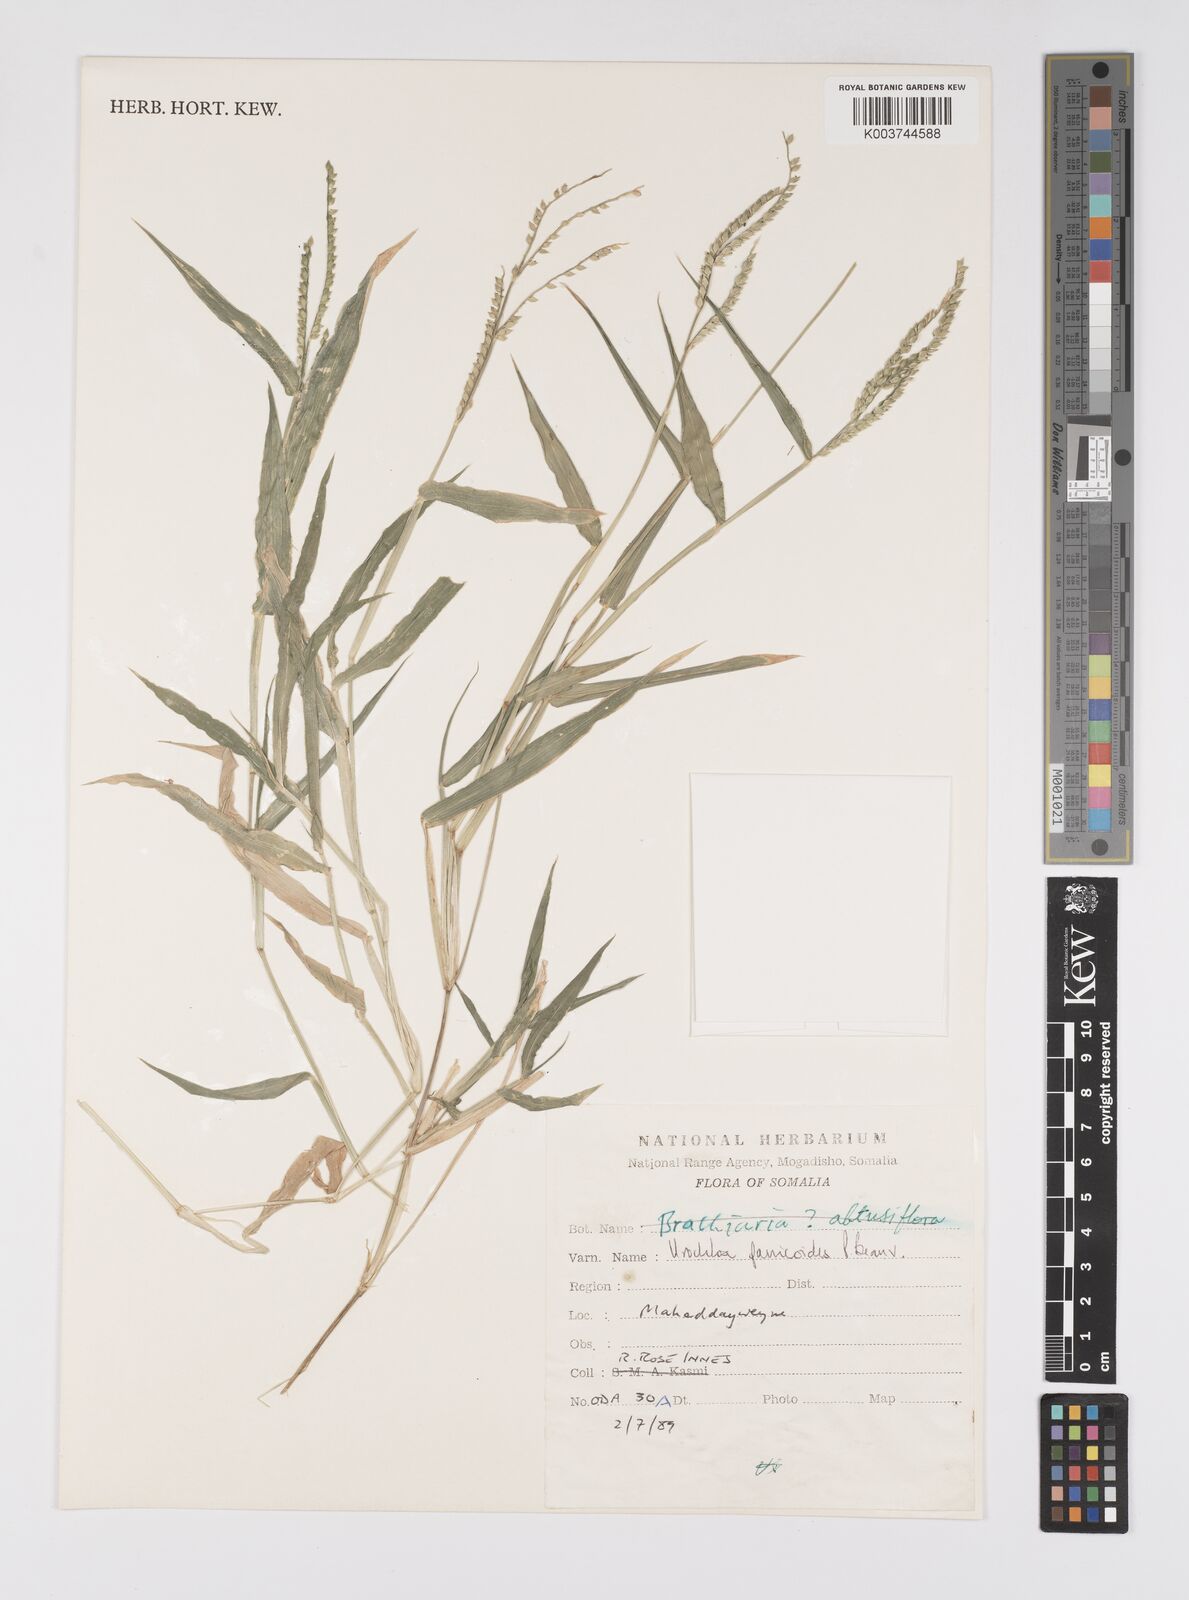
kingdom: Plantae
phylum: Tracheophyta
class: Liliopsida
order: Poales
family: Poaceae
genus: Urochloa
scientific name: Urochloa panicoides
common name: Sharp-flowered signal-grass
